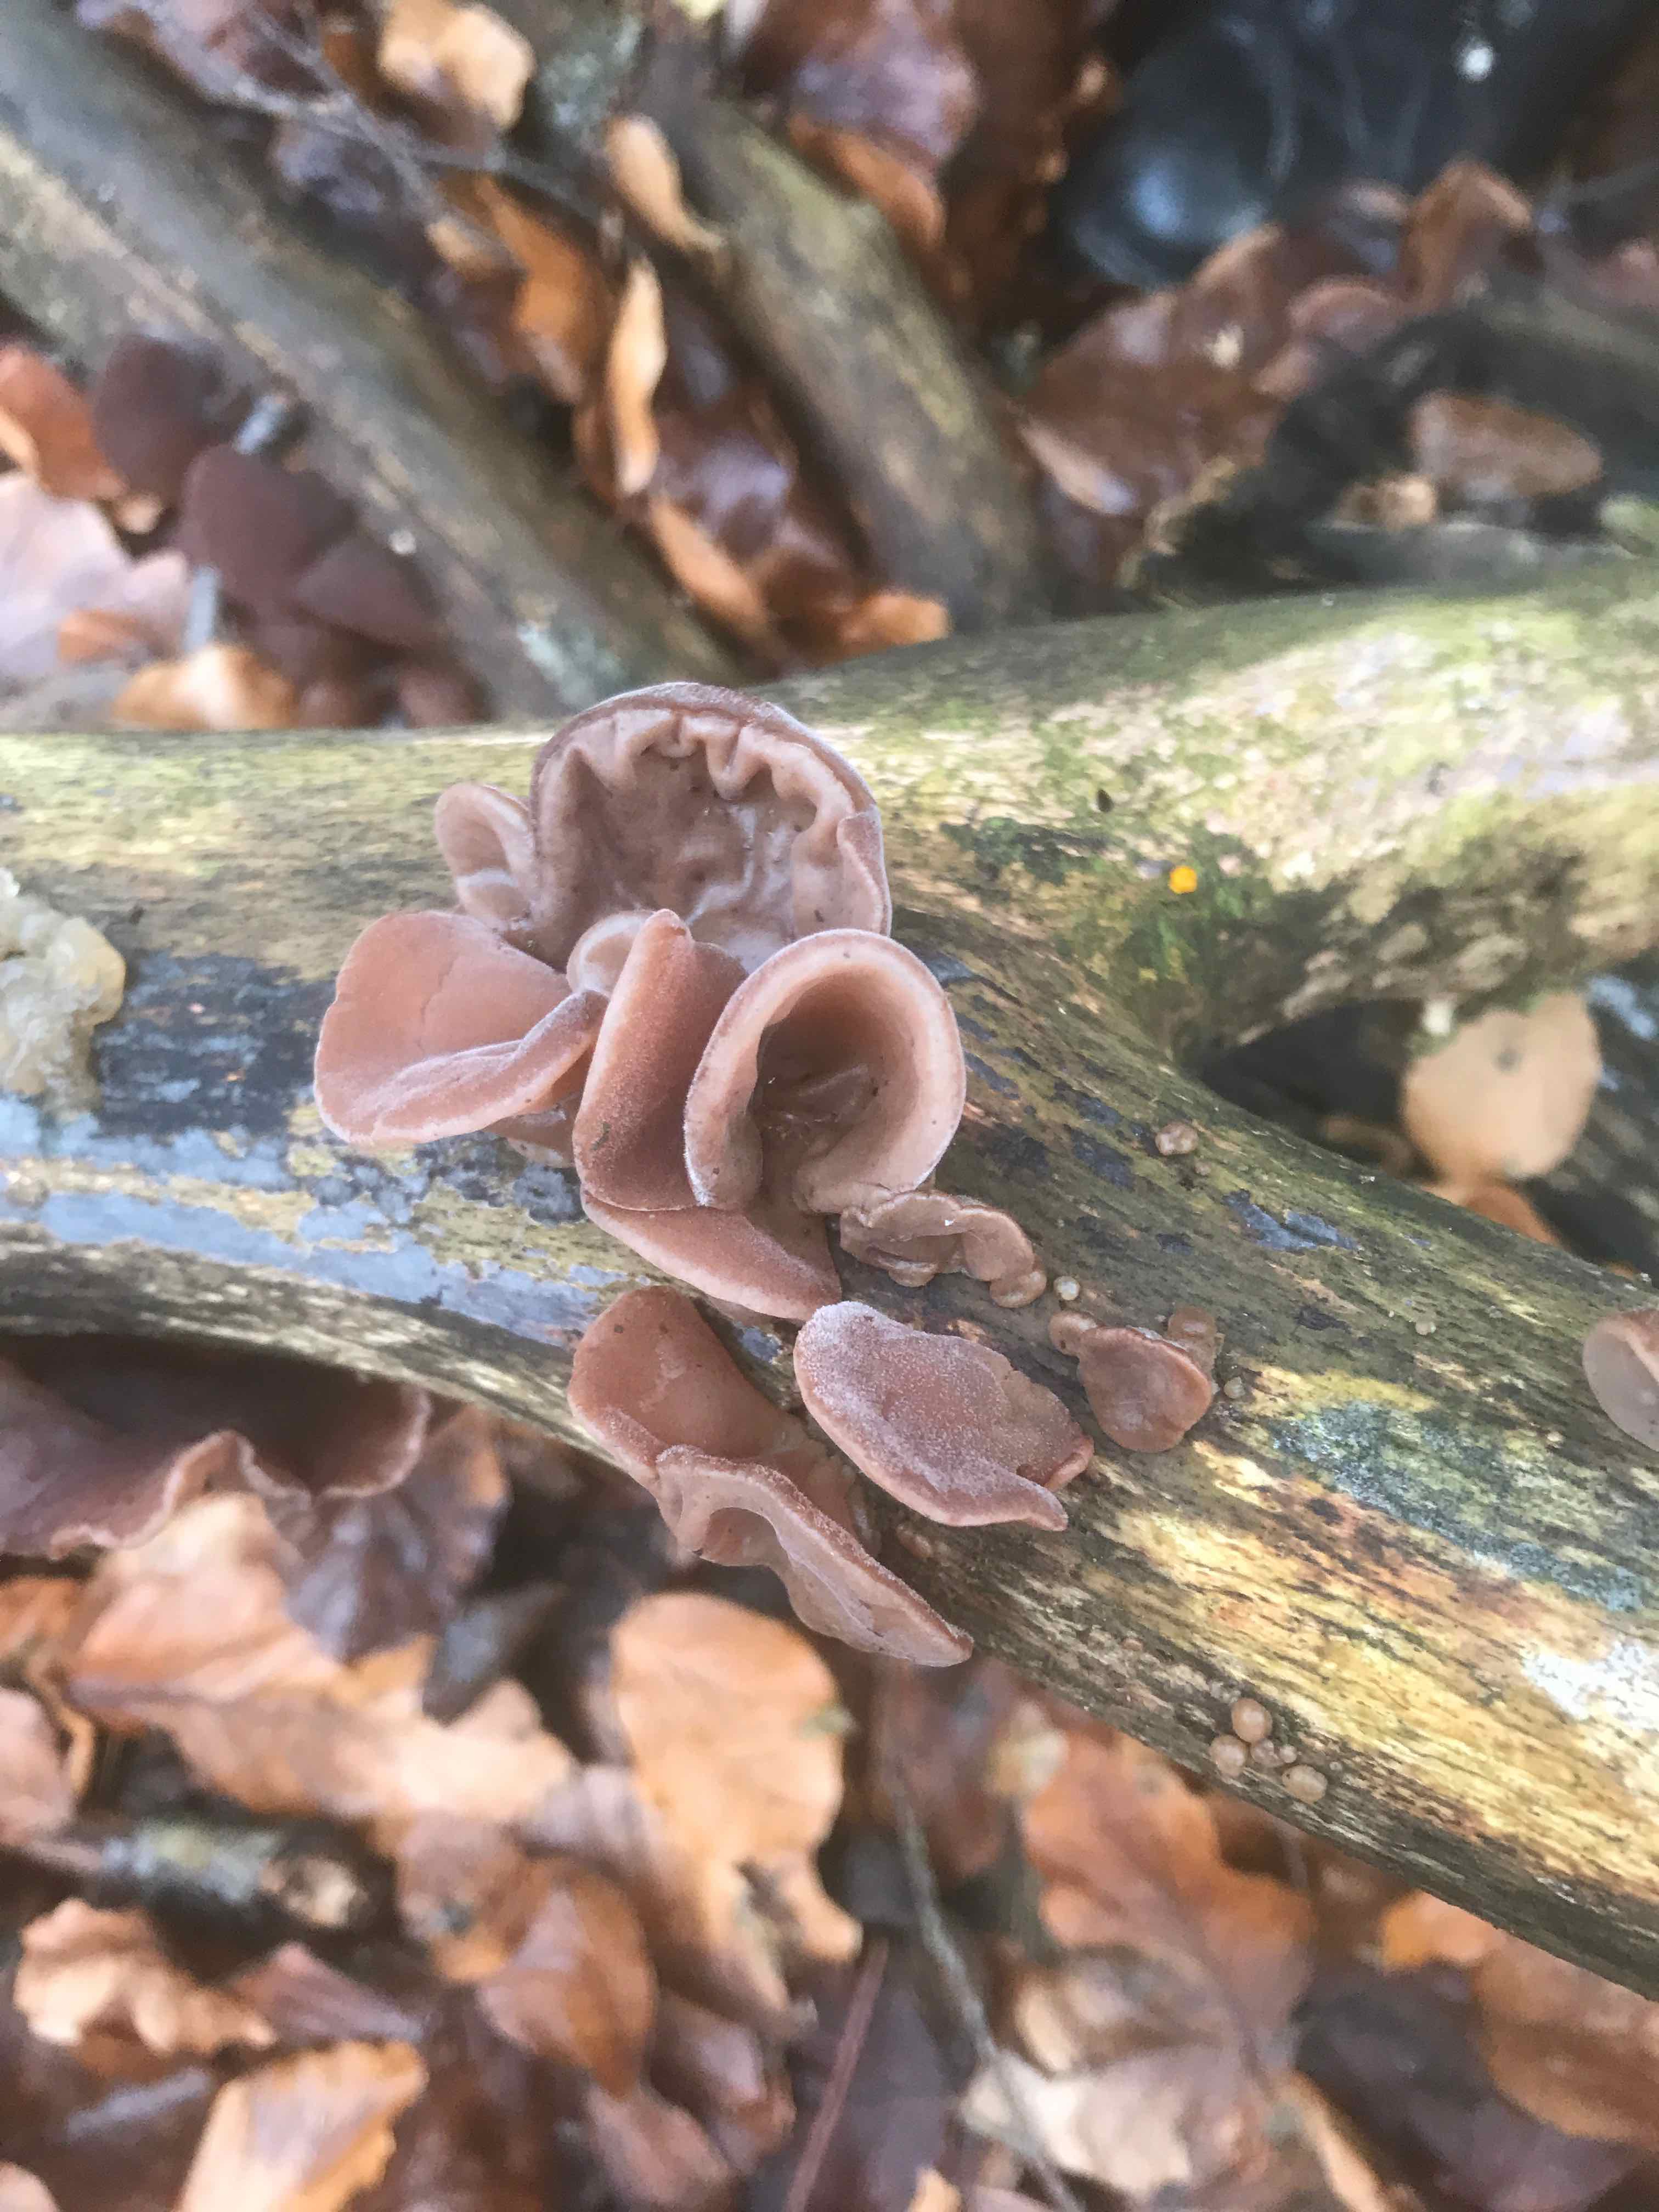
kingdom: Fungi
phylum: Basidiomycota
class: Agaricomycetes
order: Auriculariales
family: Auriculariaceae
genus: Auricularia
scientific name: Auricularia auricula-judae
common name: almindelig judasøre
